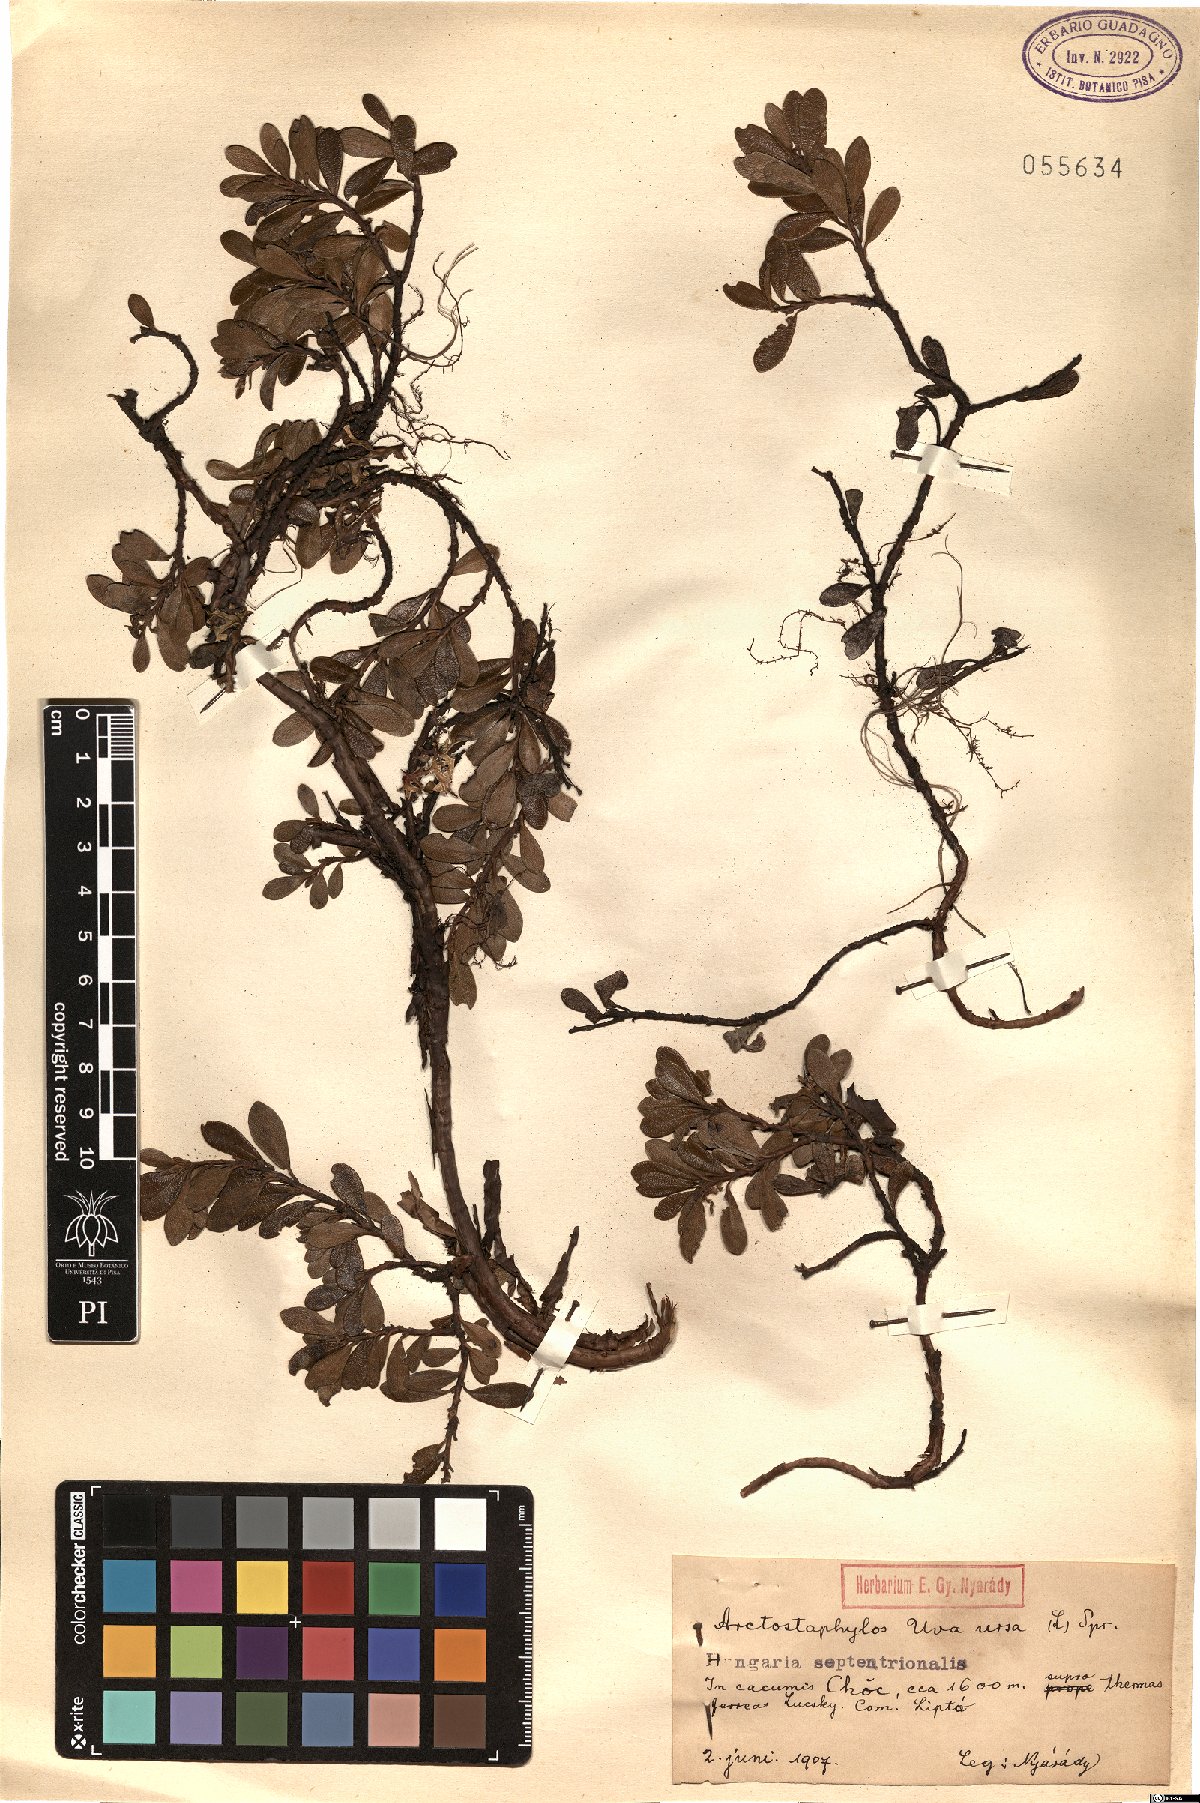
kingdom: Plantae
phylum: Tracheophyta
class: Magnoliopsida
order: Ericales
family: Ericaceae
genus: Arctostaphylos
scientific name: Arctostaphylos uva-ursi
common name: Bearberry
